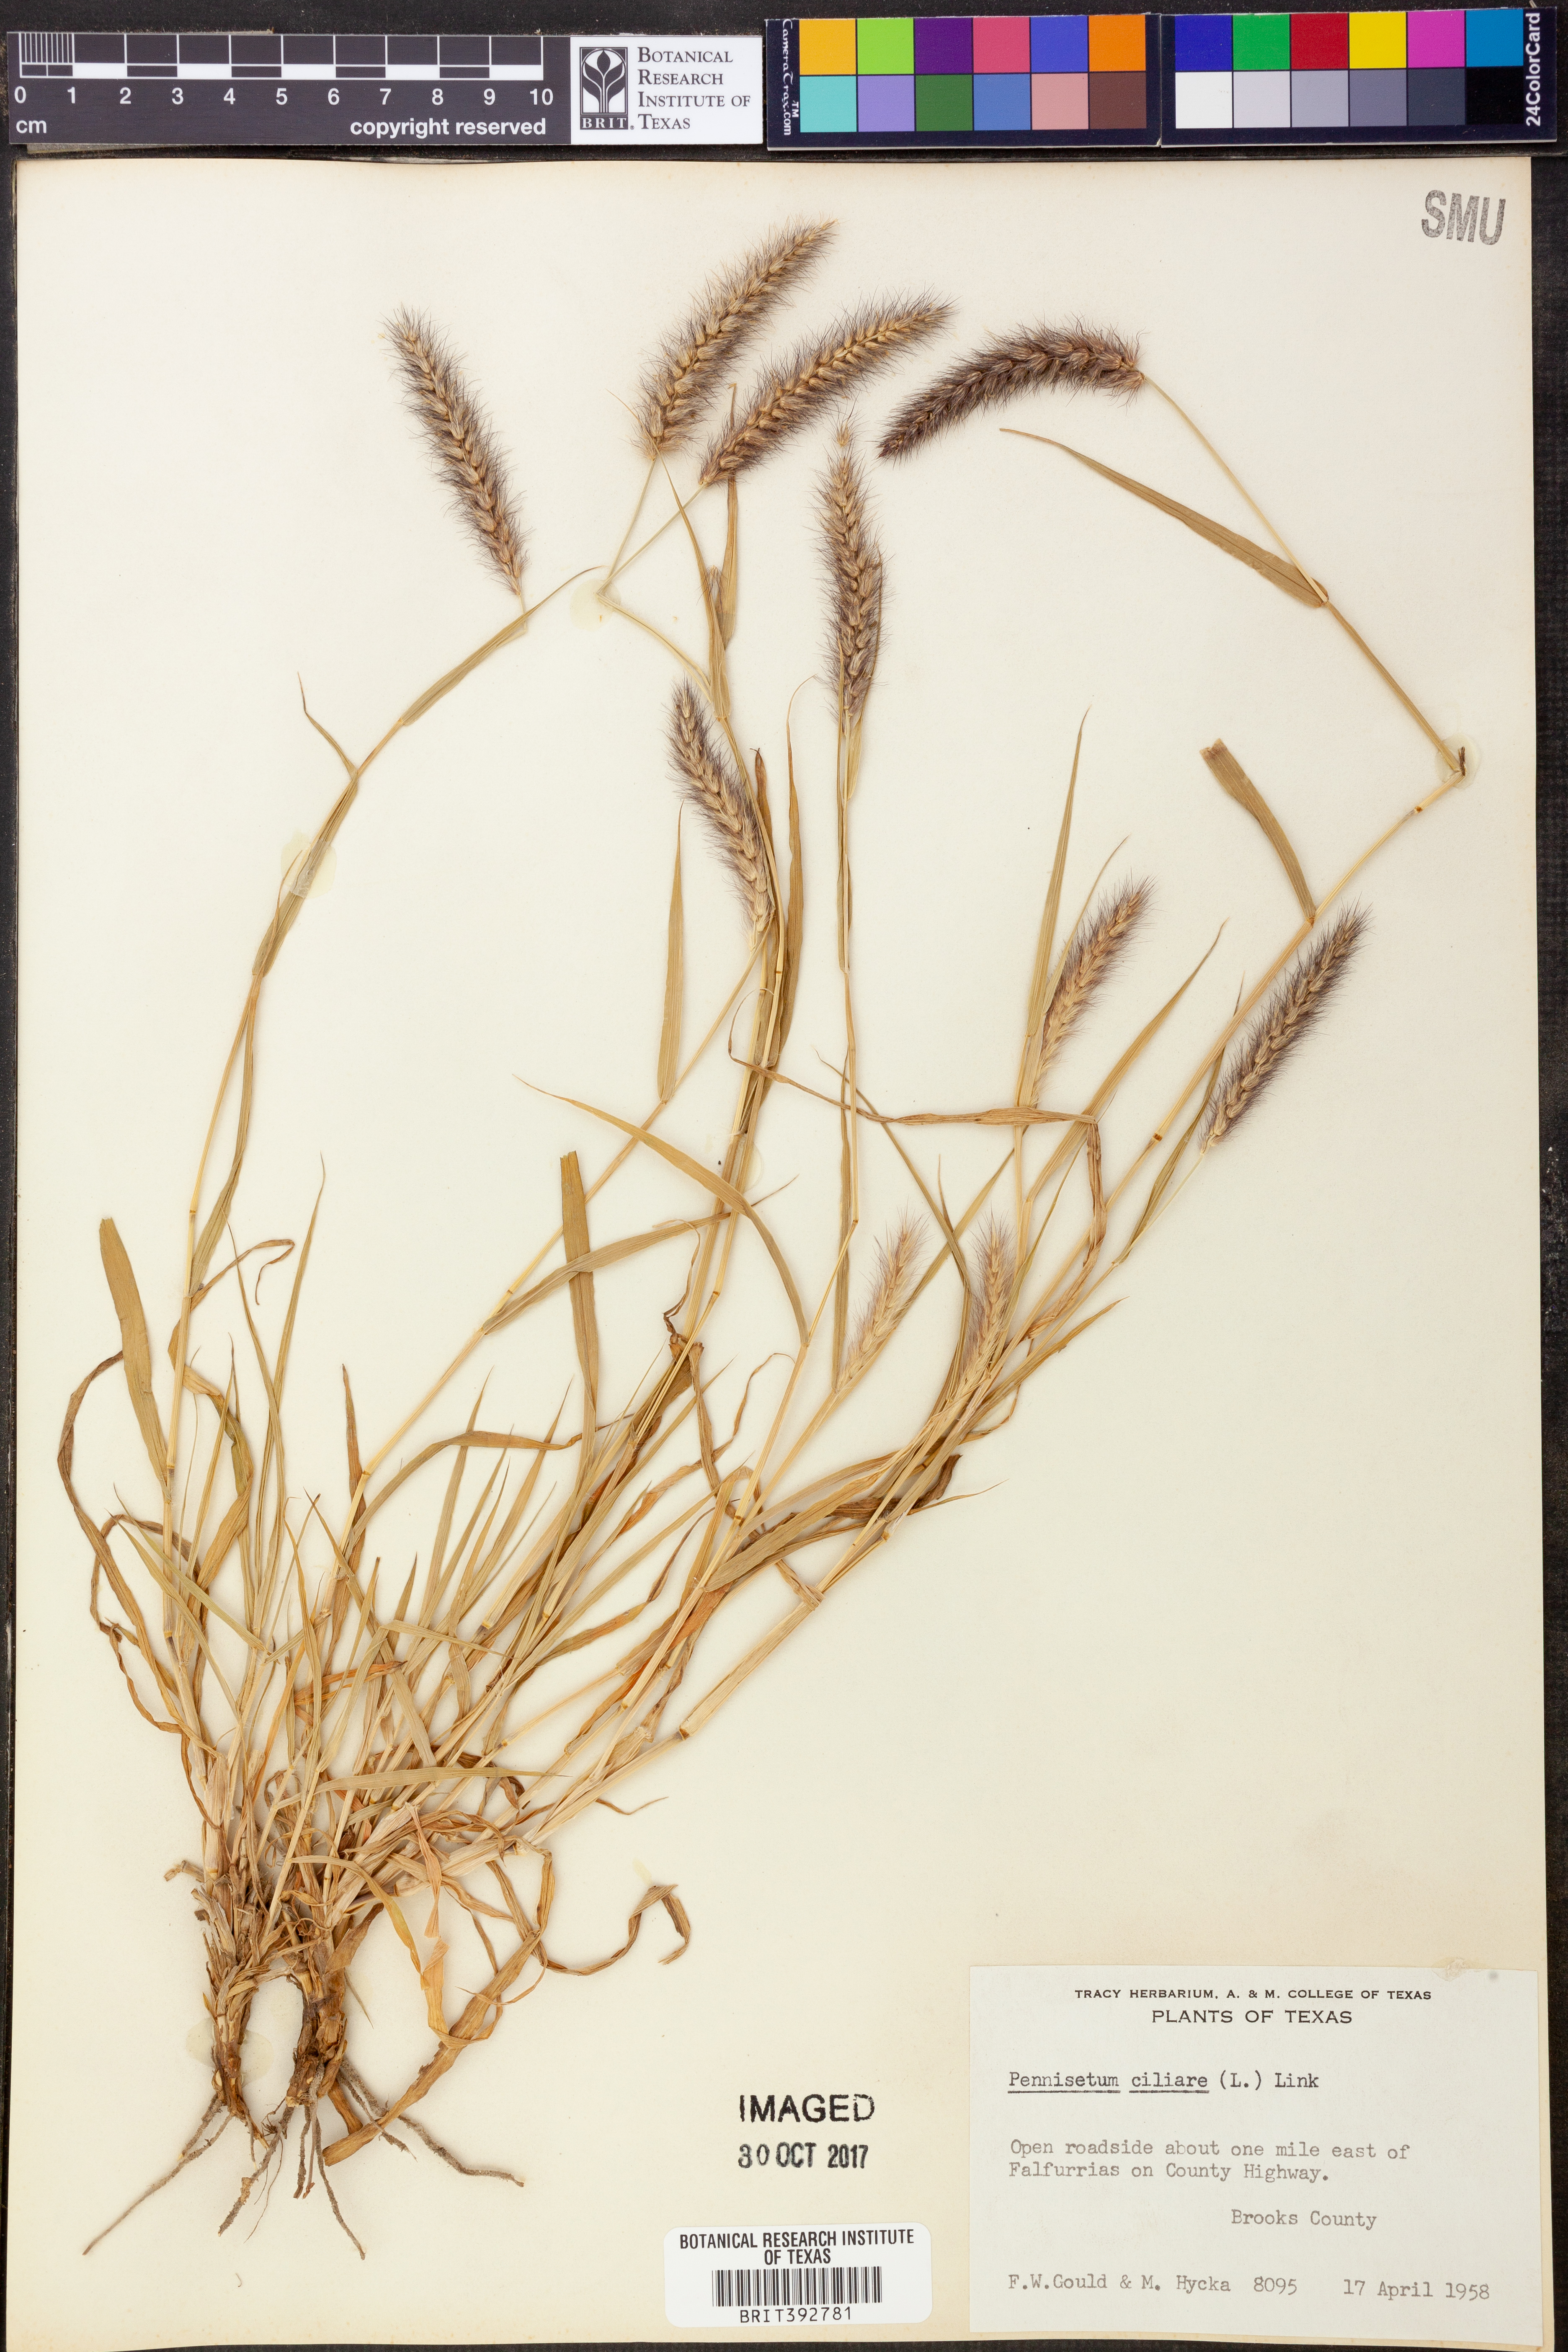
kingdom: Plantae
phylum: Tracheophyta
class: Liliopsida
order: Poales
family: Poaceae
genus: Cenchrus
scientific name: Cenchrus ciliaris
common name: Buffelgrass
